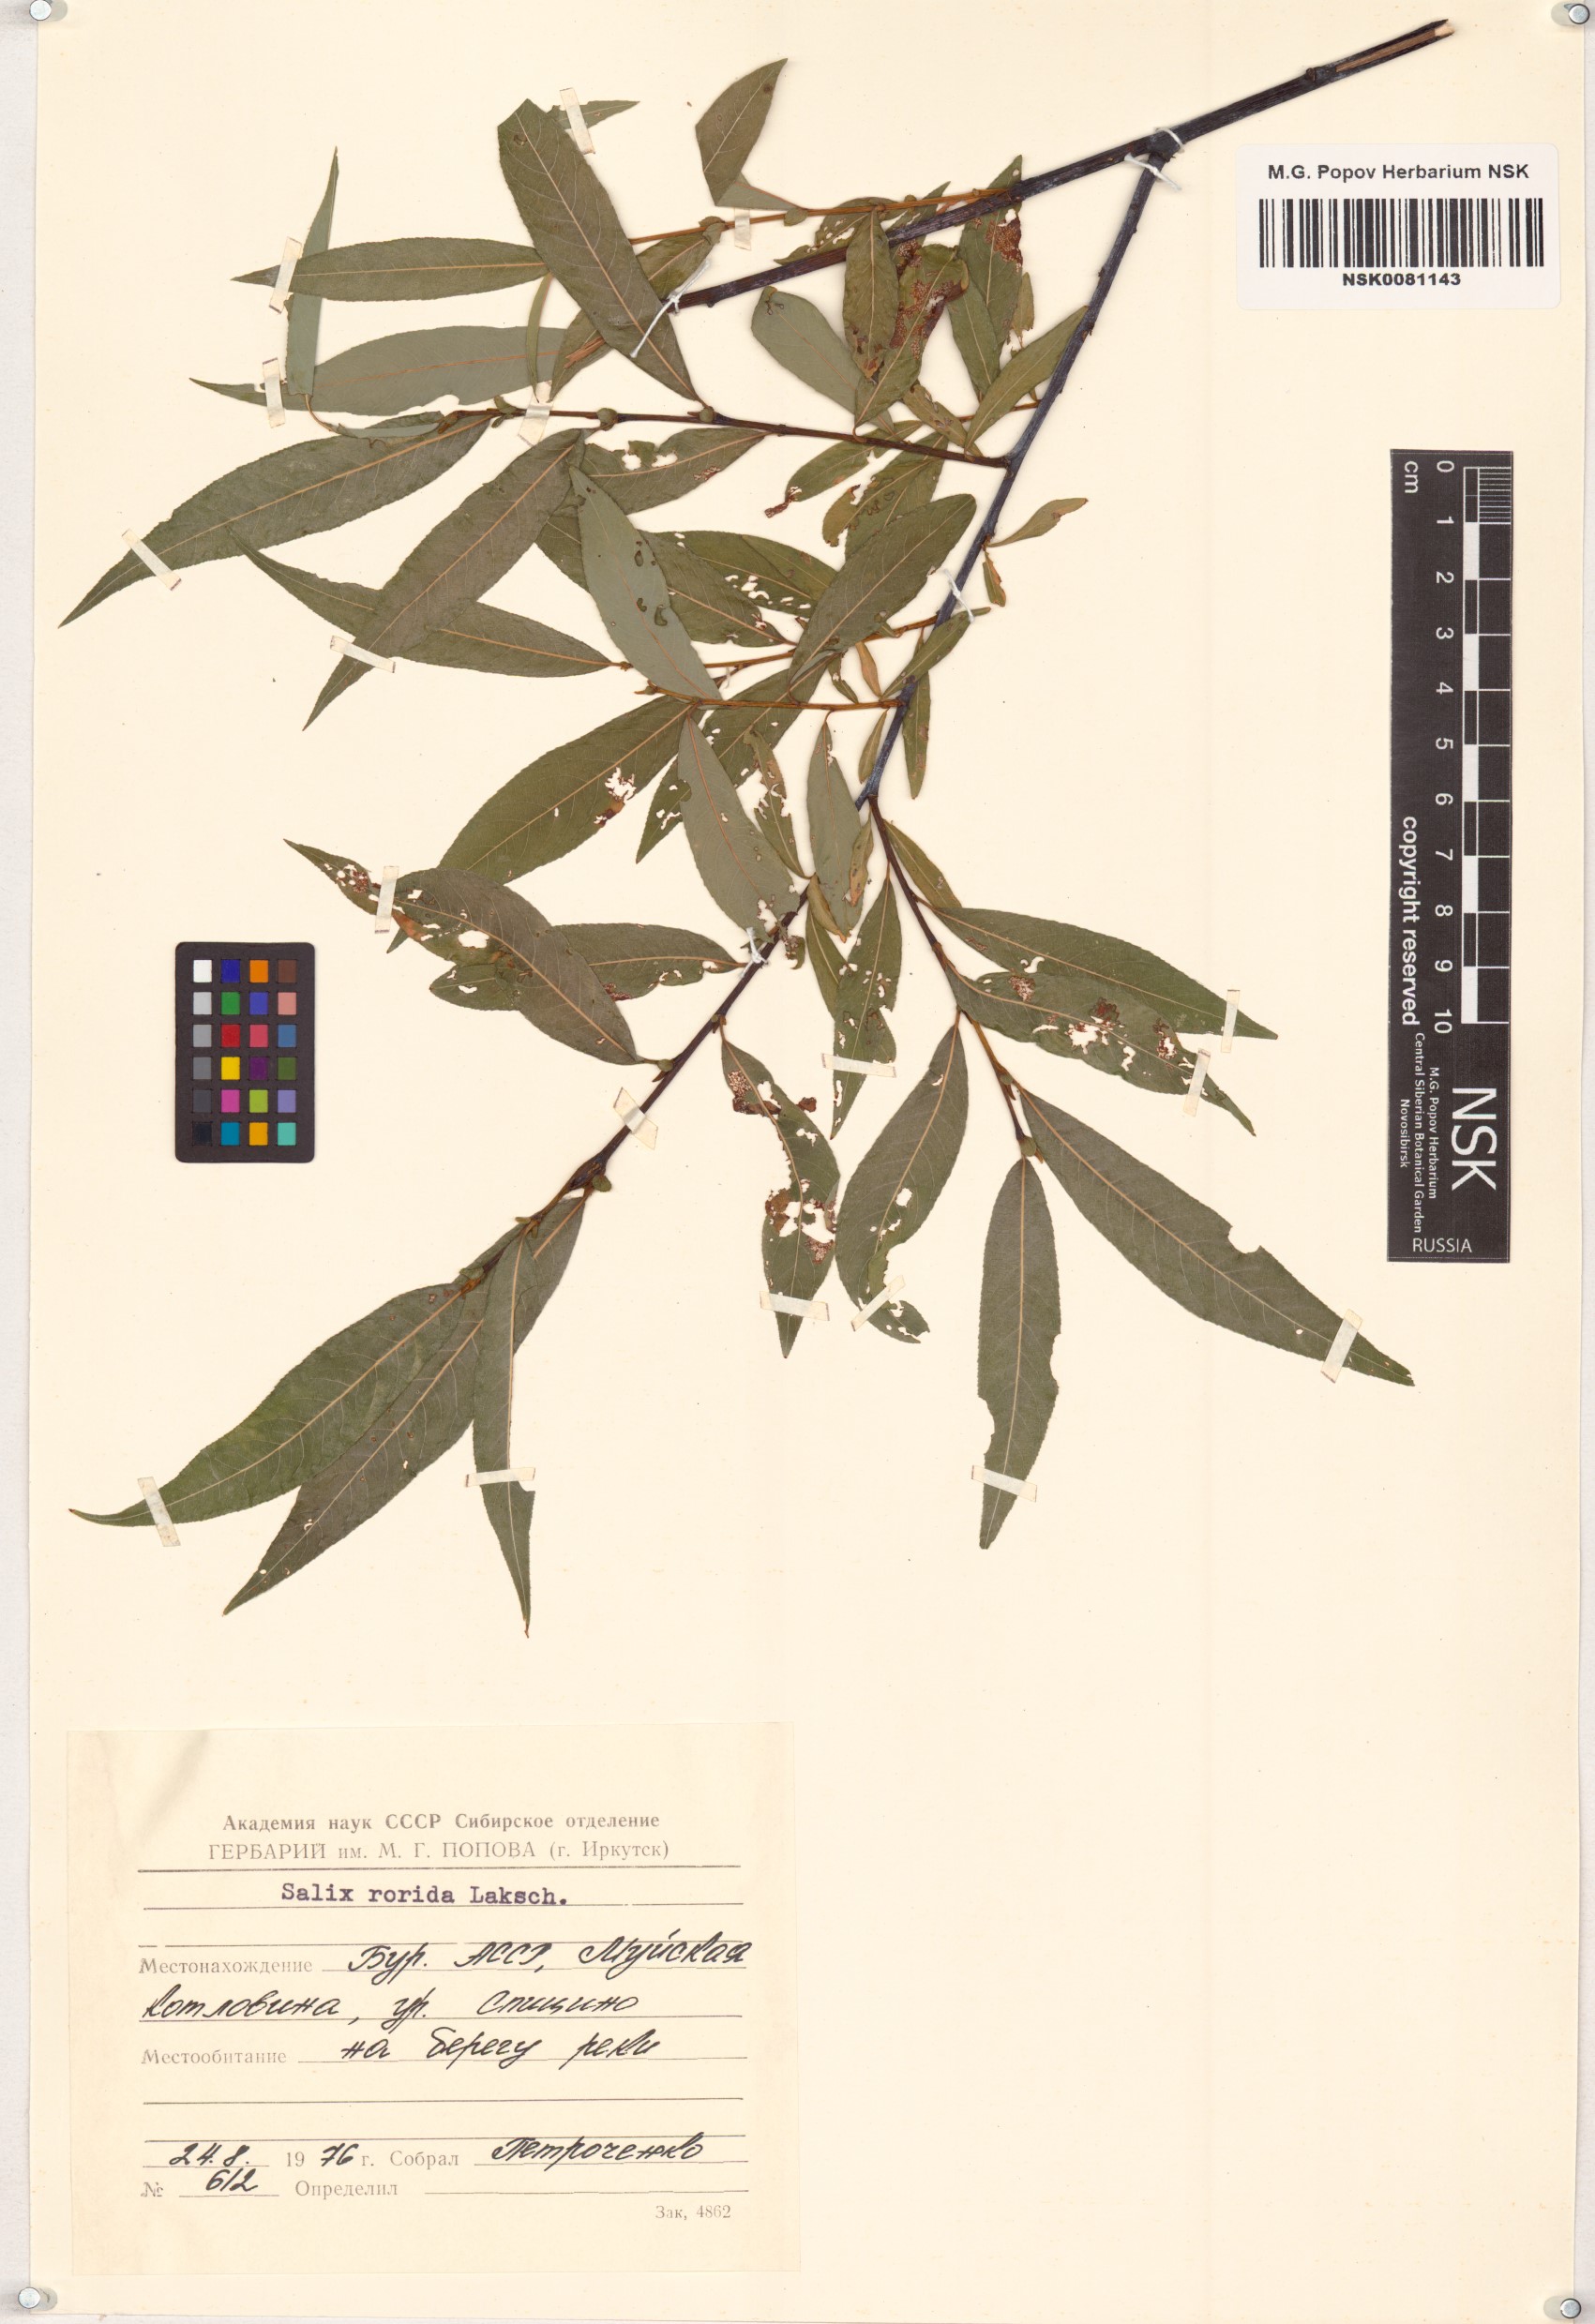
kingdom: Plantae
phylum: Tracheophyta
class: Magnoliopsida
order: Malpighiales
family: Salicaceae
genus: Salix
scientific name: Salix rorida
